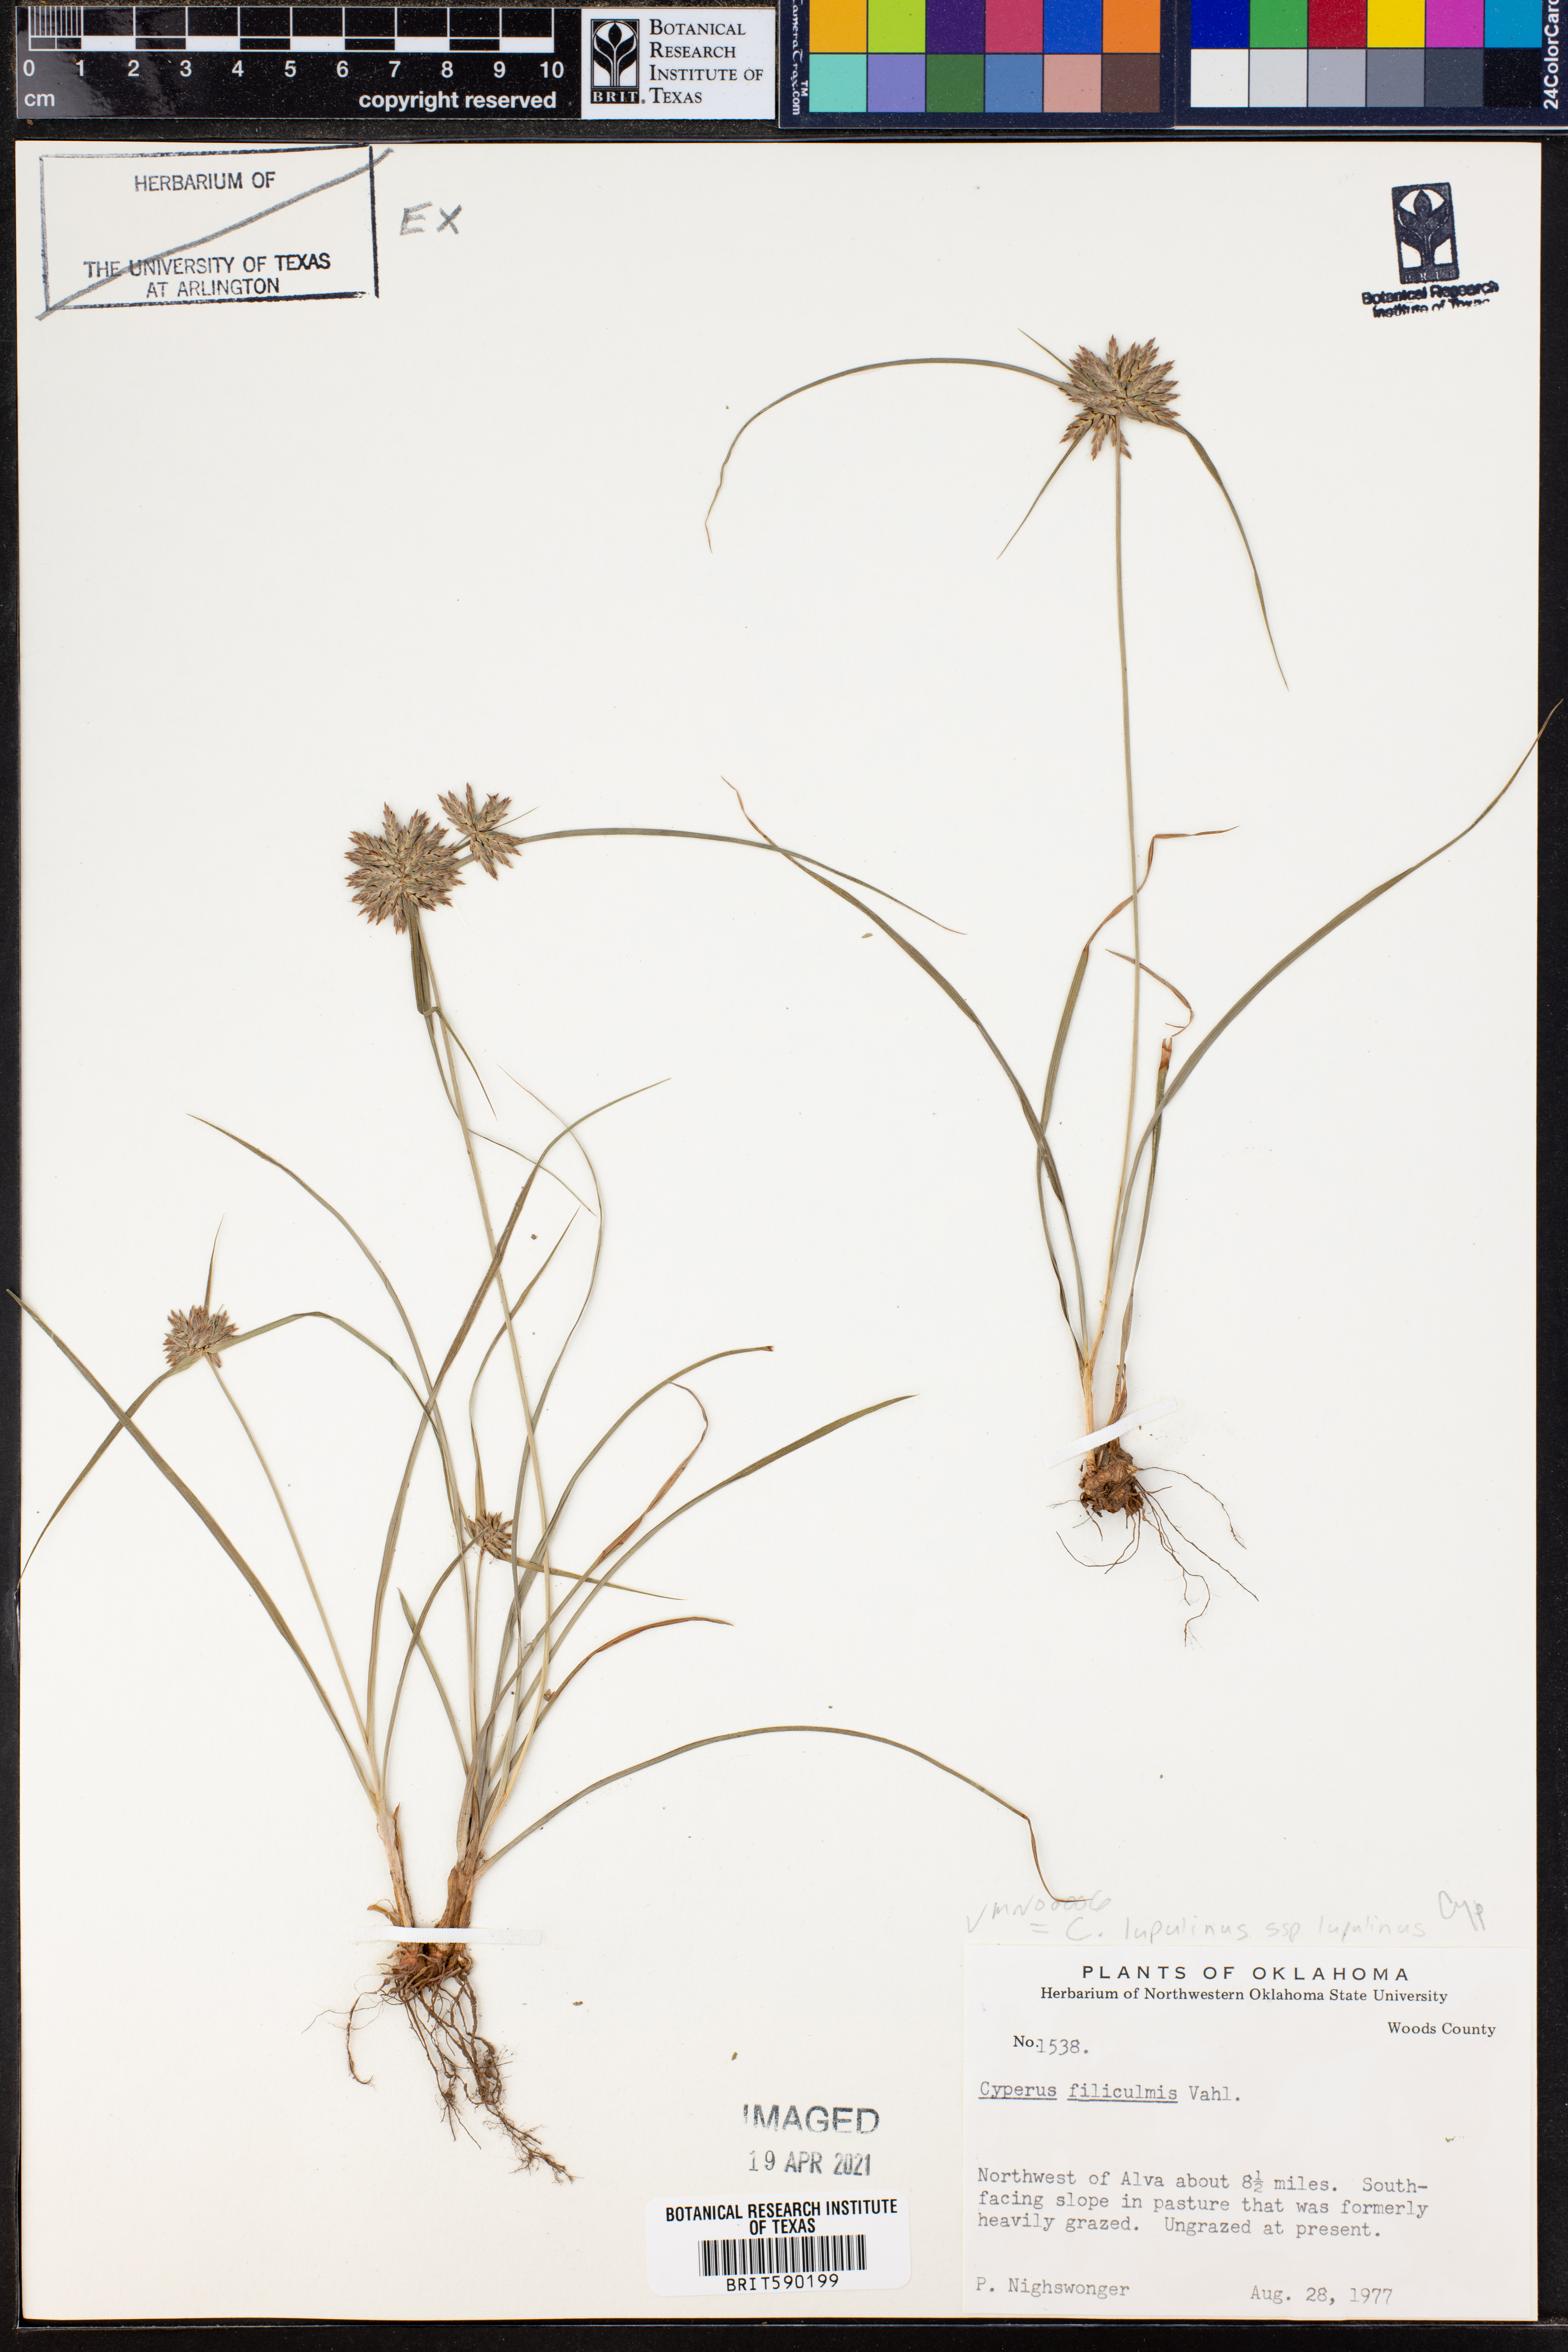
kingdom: Plantae
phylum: Tracheophyta
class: Liliopsida
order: Poales
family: Cyperaceae
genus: Cyperus
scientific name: Cyperus lupulinus
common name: Great plains flatsedge
